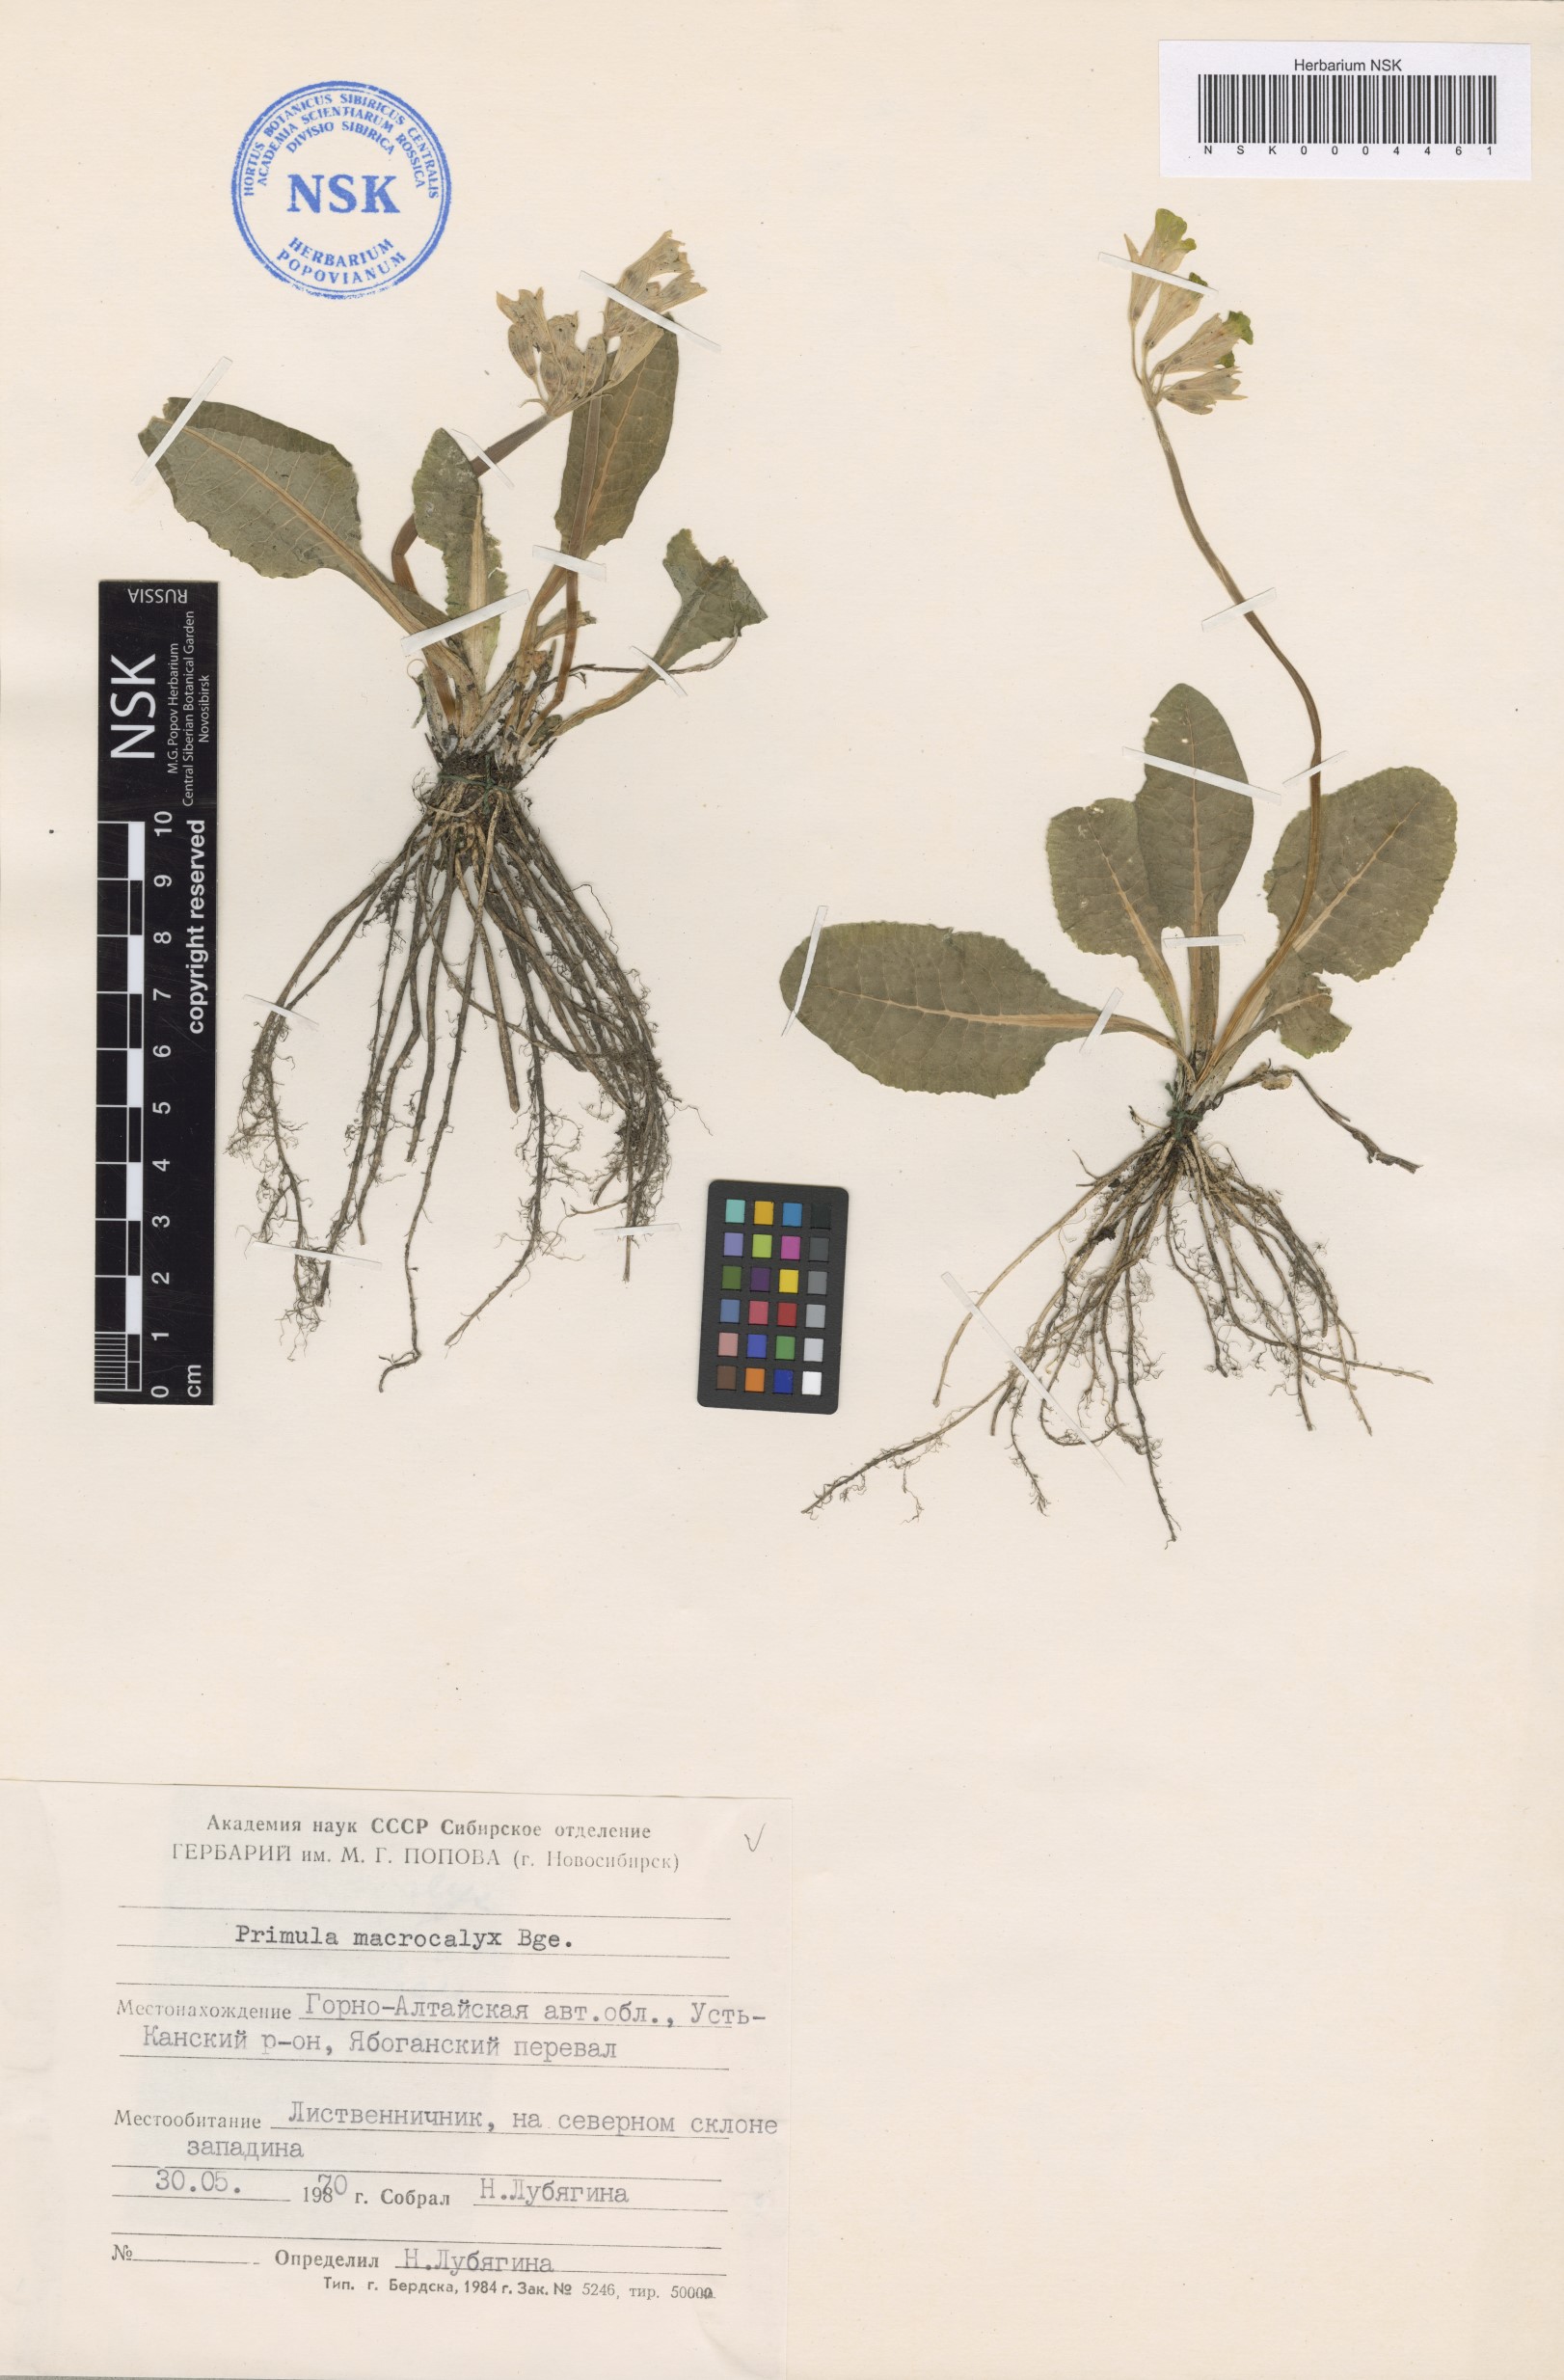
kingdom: Plantae
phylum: Tracheophyta
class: Magnoliopsida
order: Ericales
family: Primulaceae
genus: Primula
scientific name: Primula veris
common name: Cowslip
